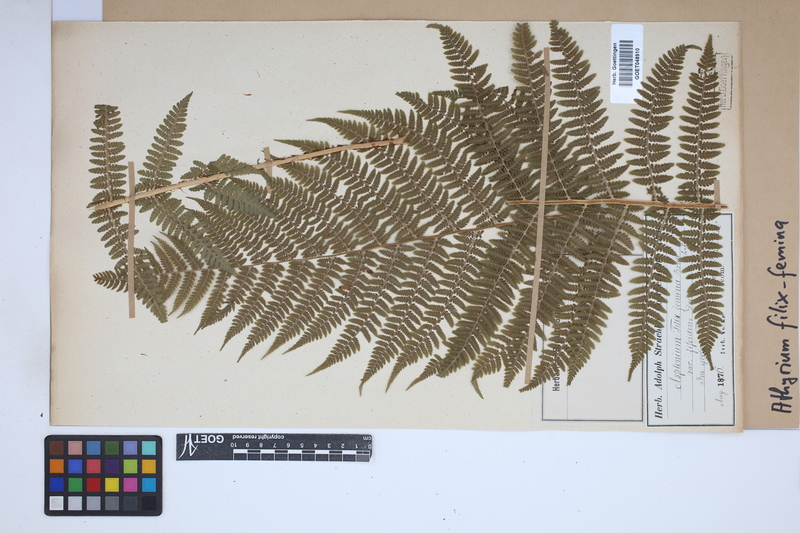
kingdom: Plantae
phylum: Tracheophyta
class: Polypodiopsida
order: Polypodiales
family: Athyriaceae
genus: Athyrium
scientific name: Athyrium filix-femina
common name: Lady fern
